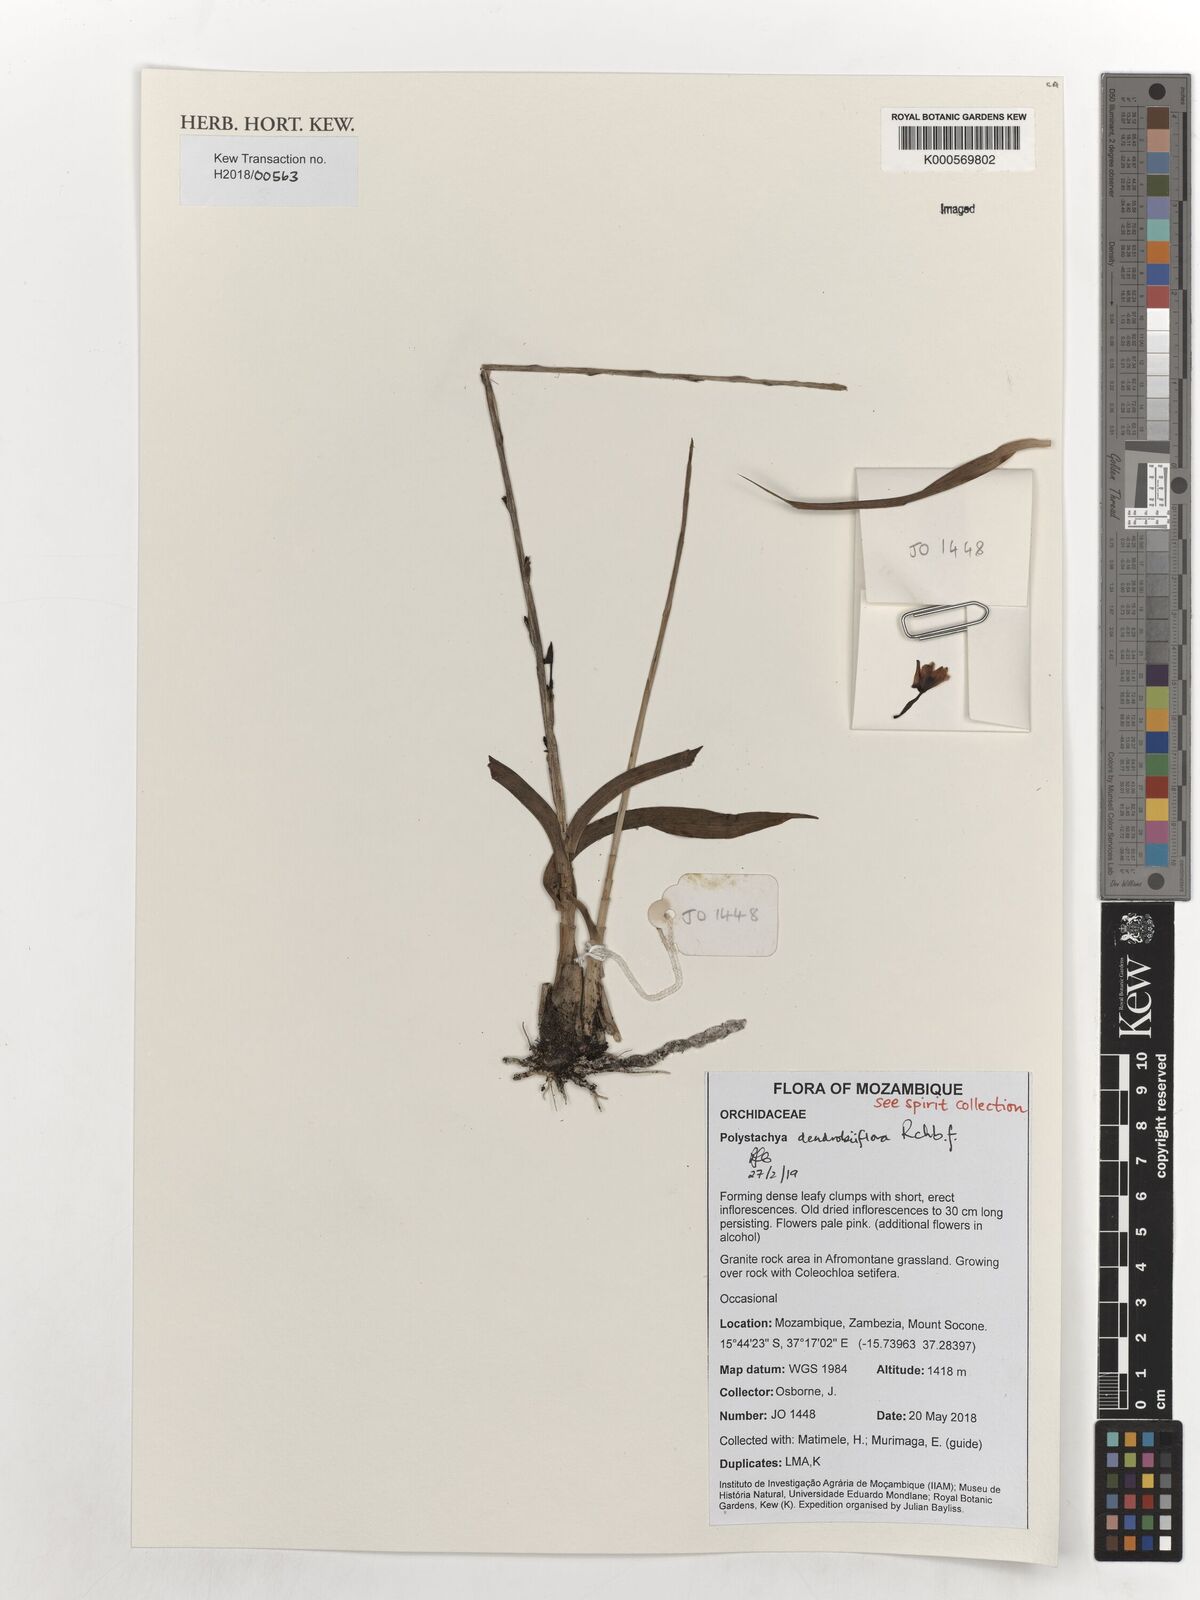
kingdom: Plantae
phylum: Tracheophyta
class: Liliopsida
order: Asparagales
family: Orchidaceae
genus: Polystachya
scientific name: Polystachya dendrobiiflora
